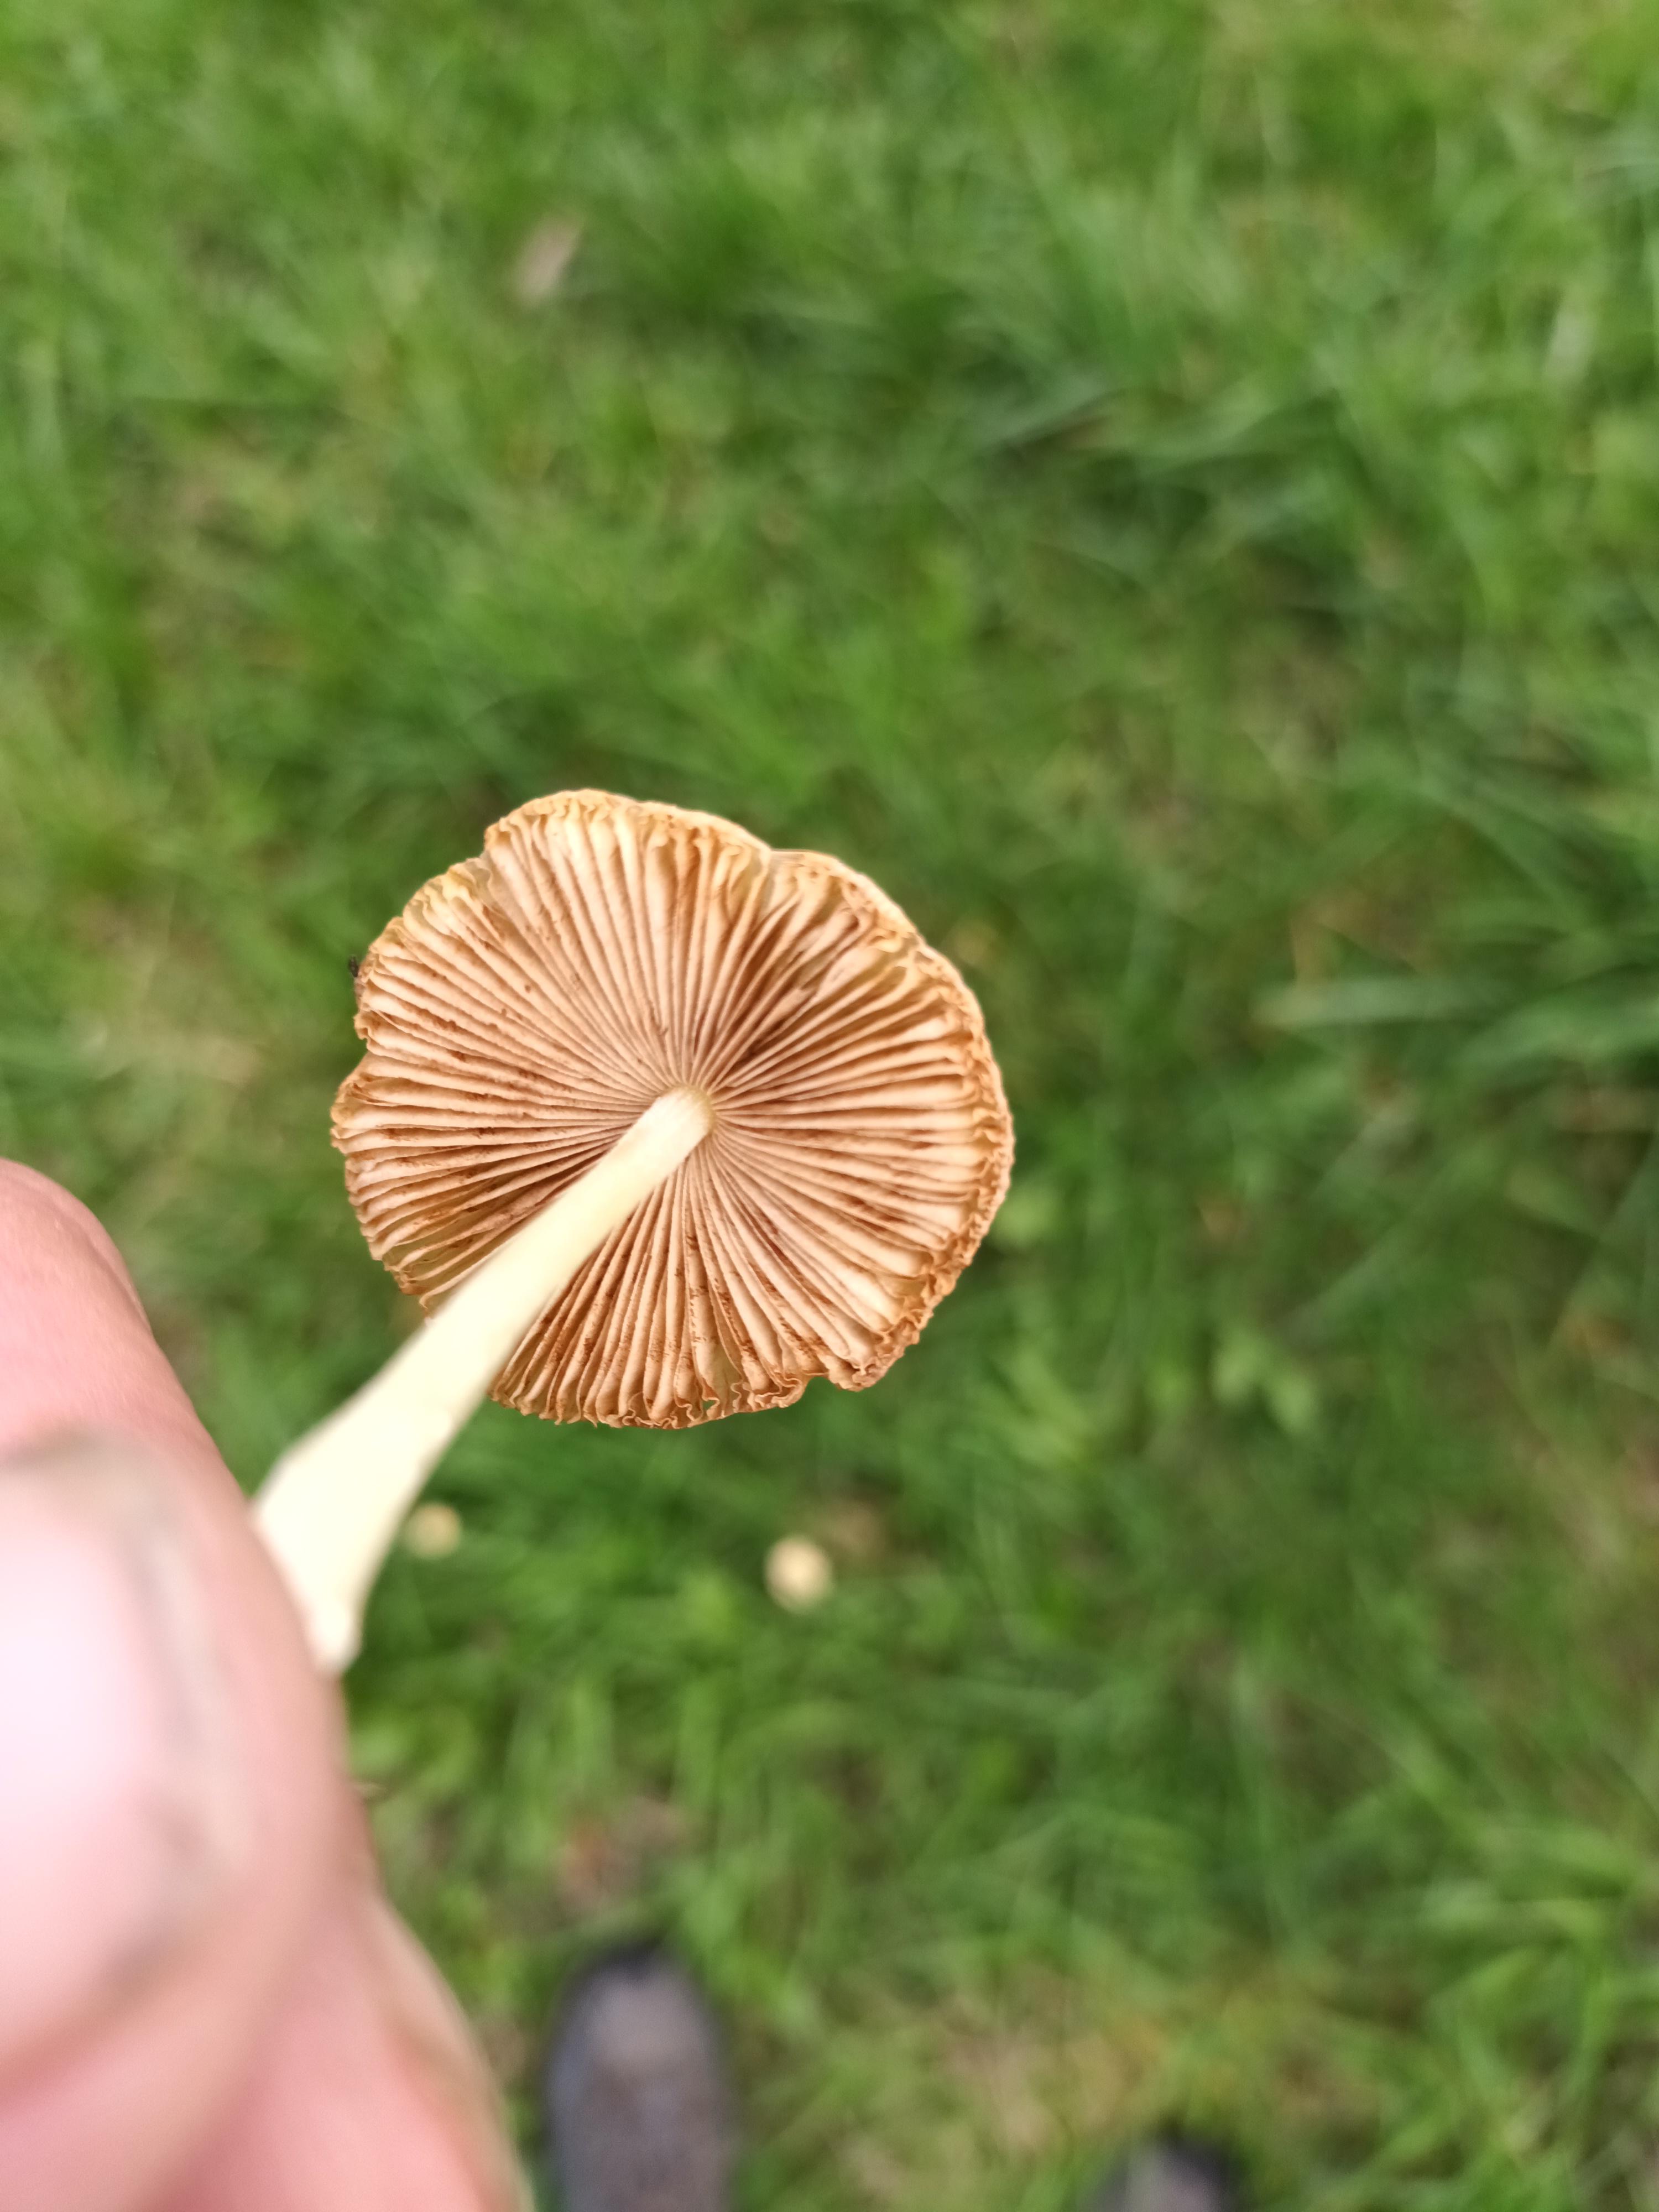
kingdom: Fungi
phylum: Basidiomycota
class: Agaricomycetes
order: Agaricales
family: Bolbitiaceae
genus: Bolbitius
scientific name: Bolbitius titubans
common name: almindelig gulhat
